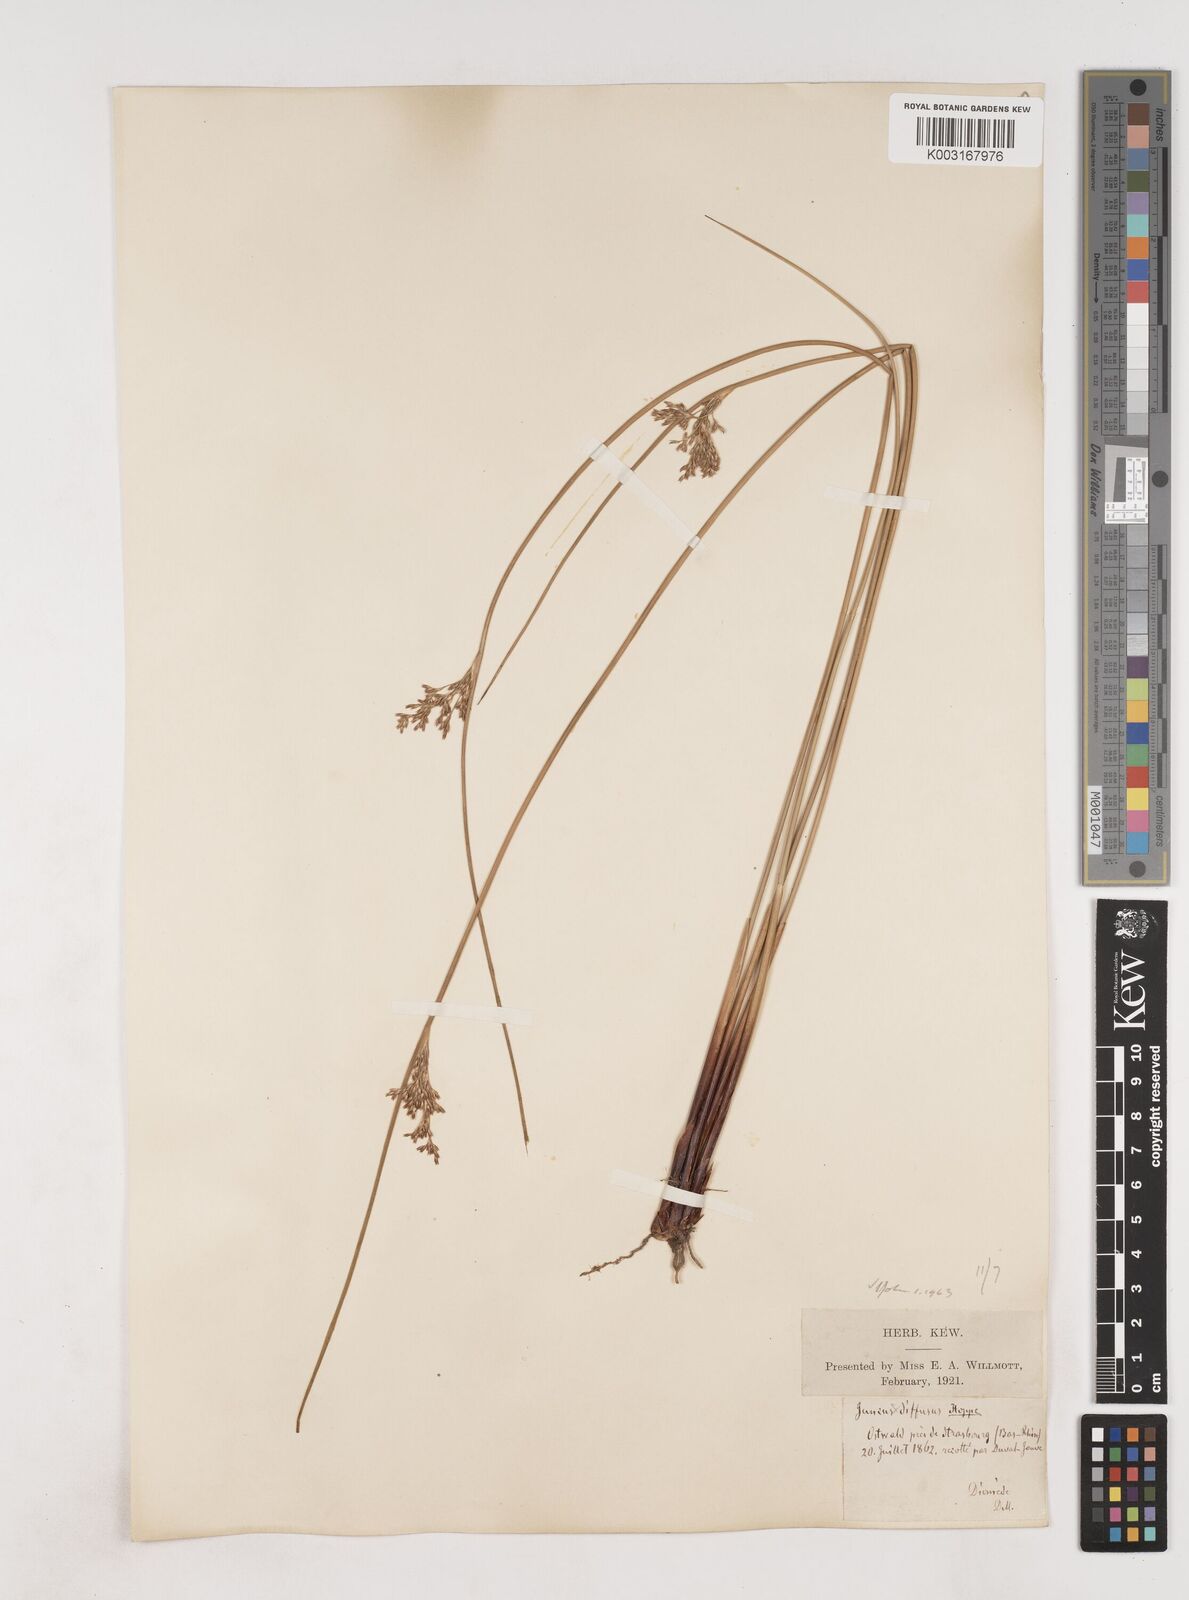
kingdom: Plantae
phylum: Tracheophyta
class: Liliopsida
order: Poales
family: Juncaceae
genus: Juncus
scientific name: Juncus effusus
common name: Soft rush
